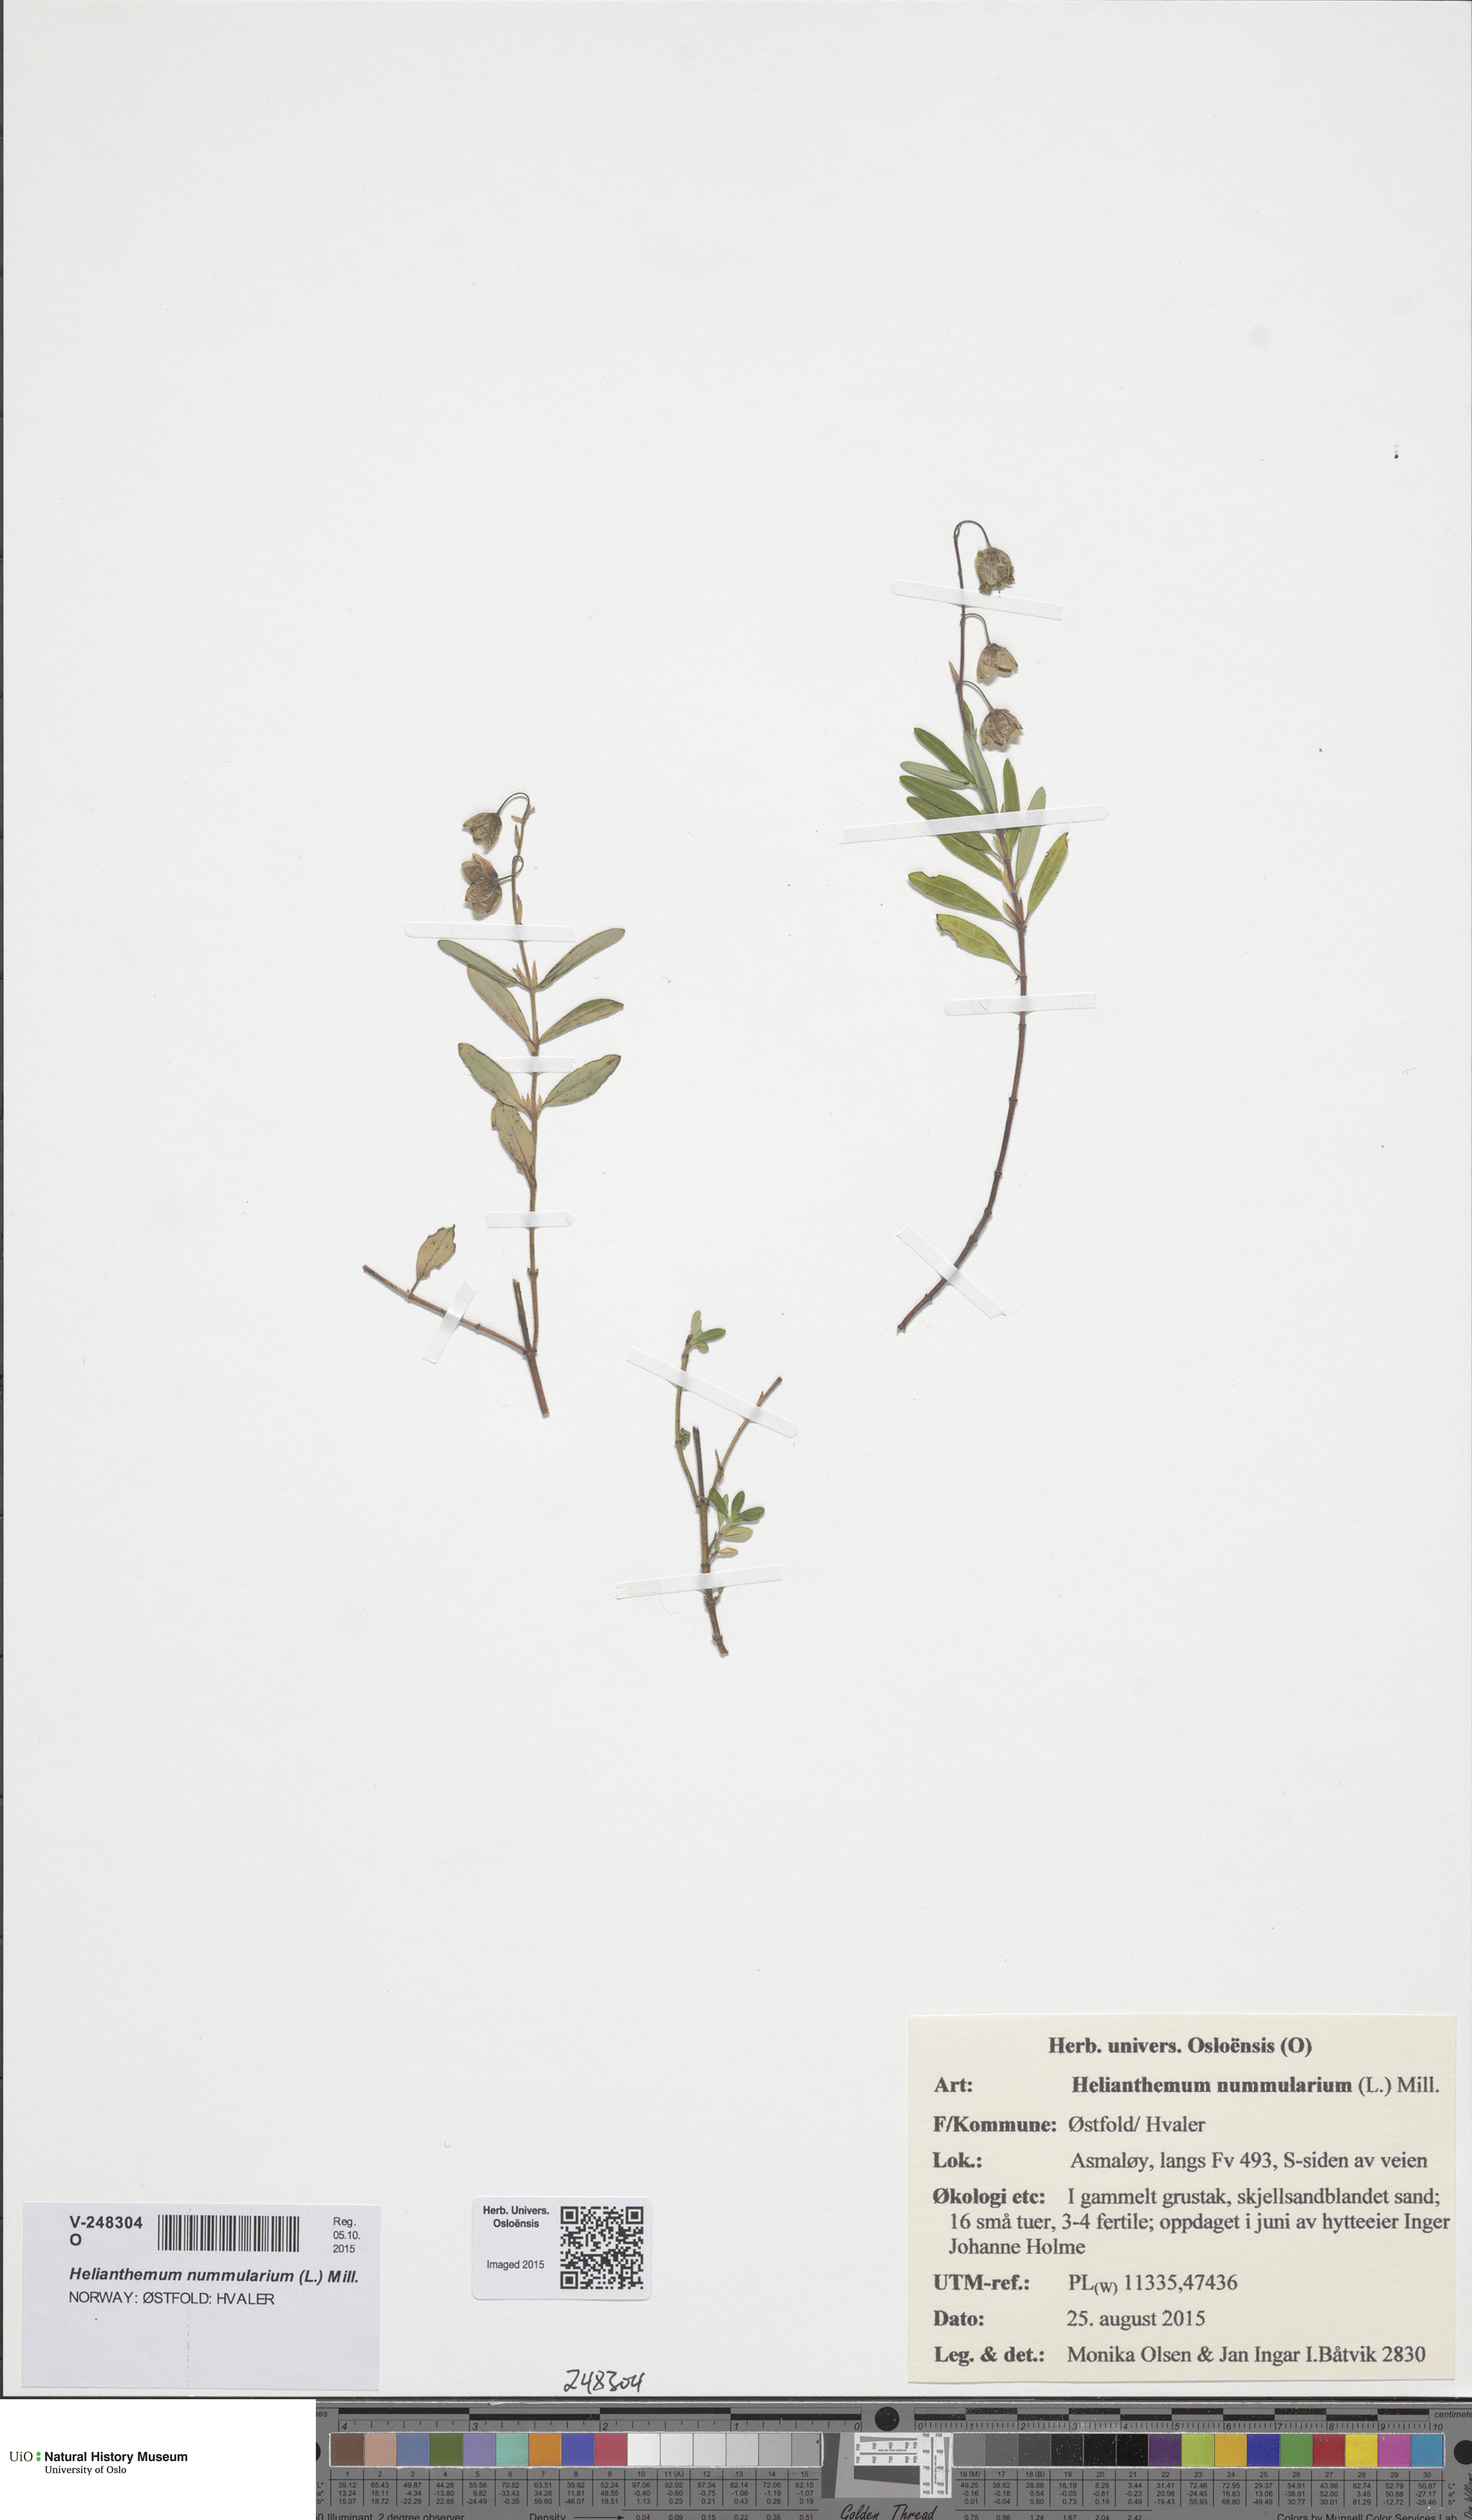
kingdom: Plantae
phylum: Tracheophyta
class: Magnoliopsida
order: Malvales
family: Cistaceae
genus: Helianthemum
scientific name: Helianthemum nummularium
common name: Common rock-rose
